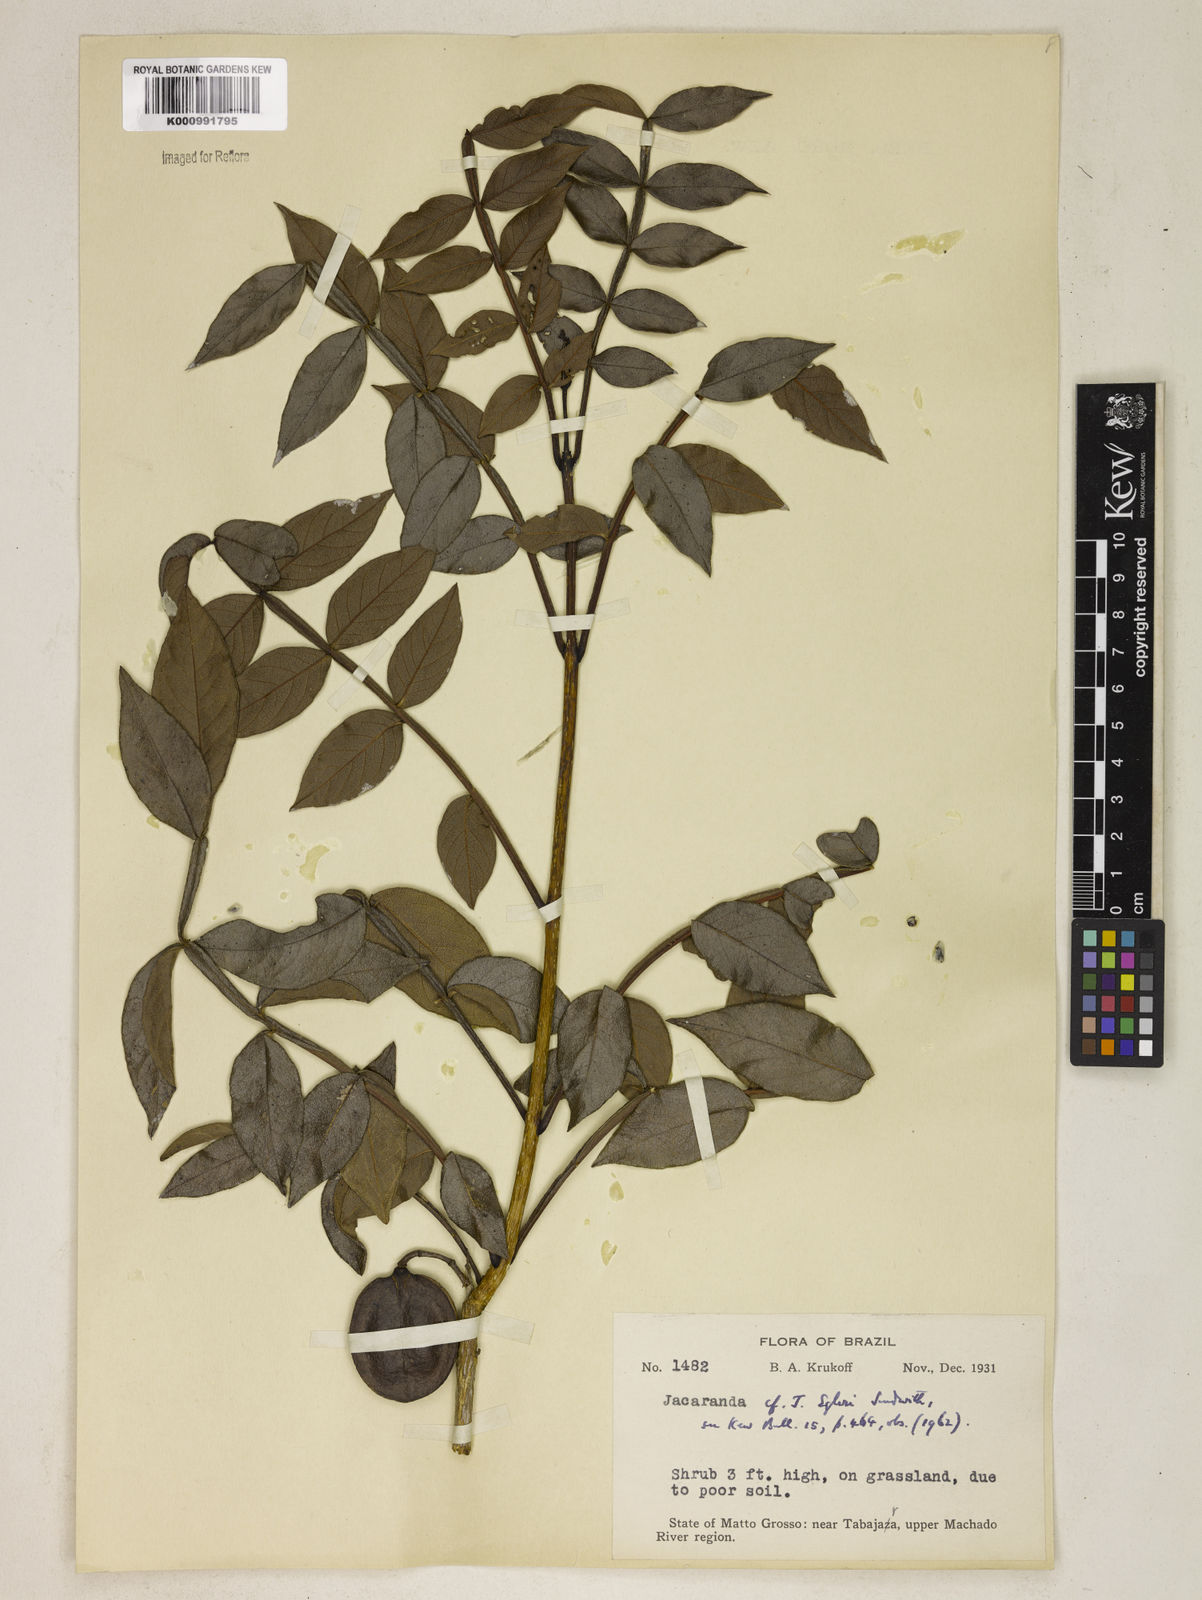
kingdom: Plantae
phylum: Tracheophyta
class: Magnoliopsida
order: Lamiales
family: Bignoniaceae
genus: Jacaranda
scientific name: Jacaranda egleri
